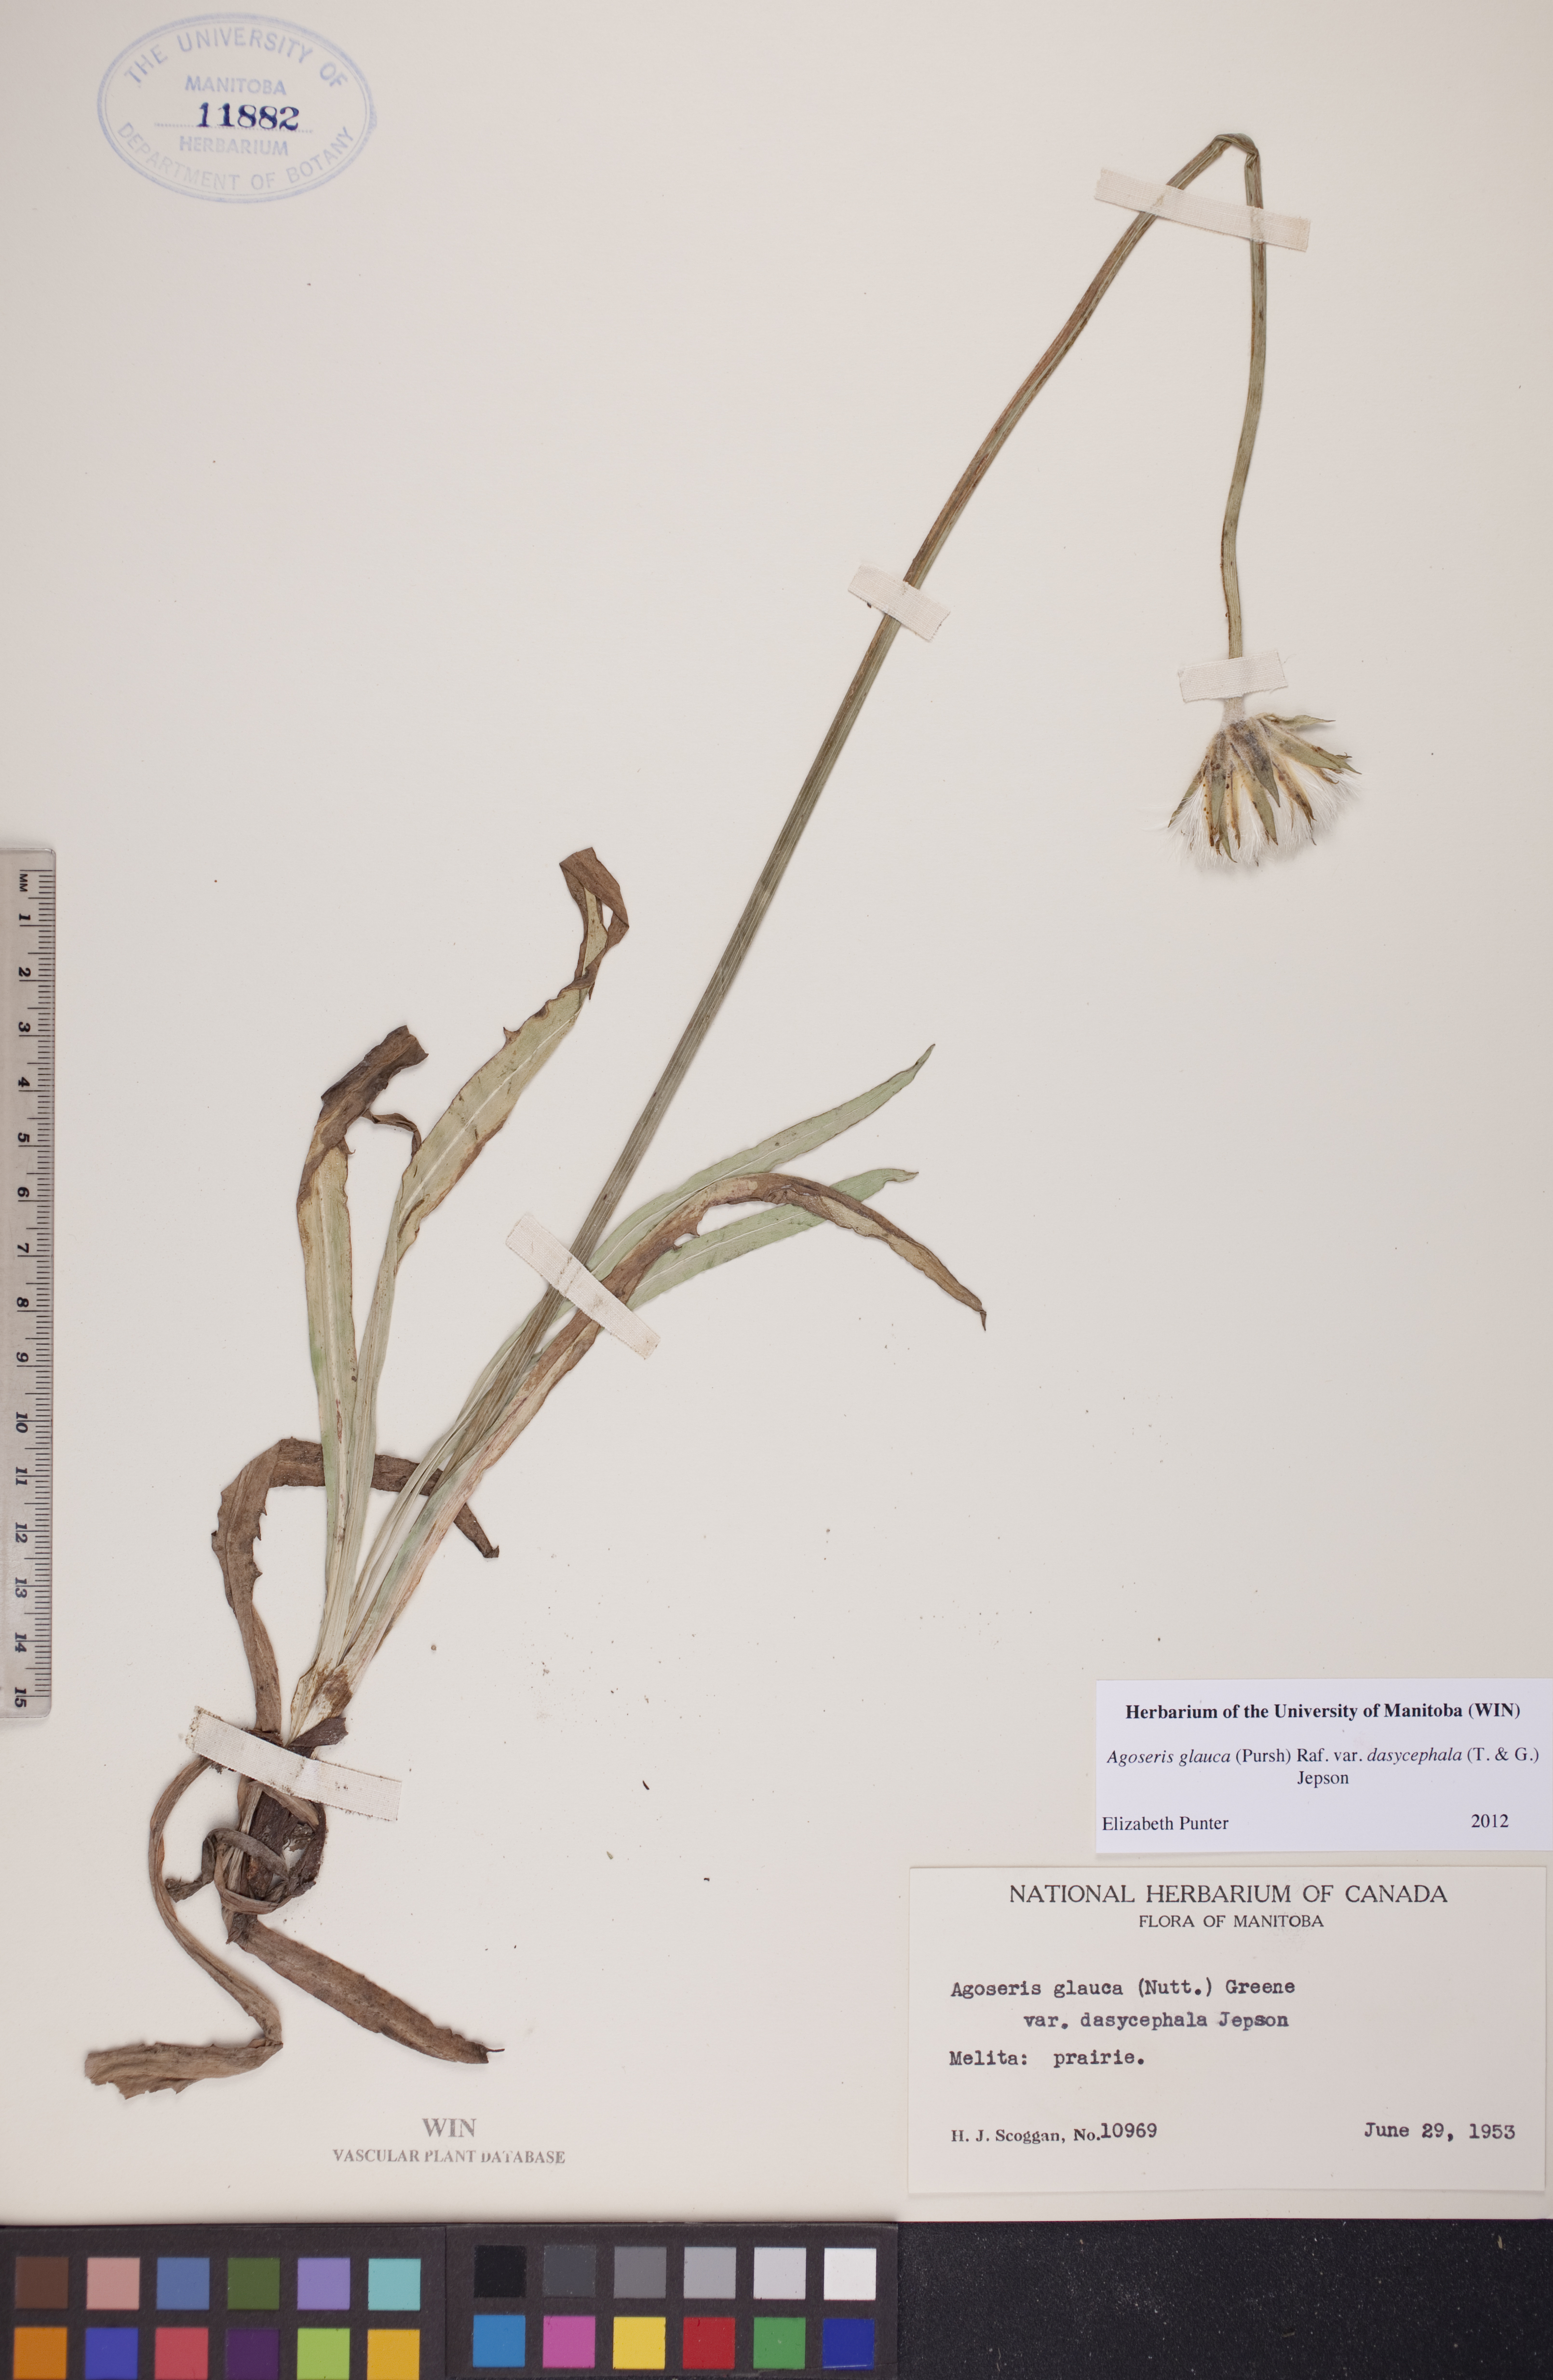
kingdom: Plantae
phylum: Tracheophyta
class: Magnoliopsida
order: Asterales
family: Asteraceae
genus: Agoseris
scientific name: Agoseris glauca
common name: Prairie agoseris
